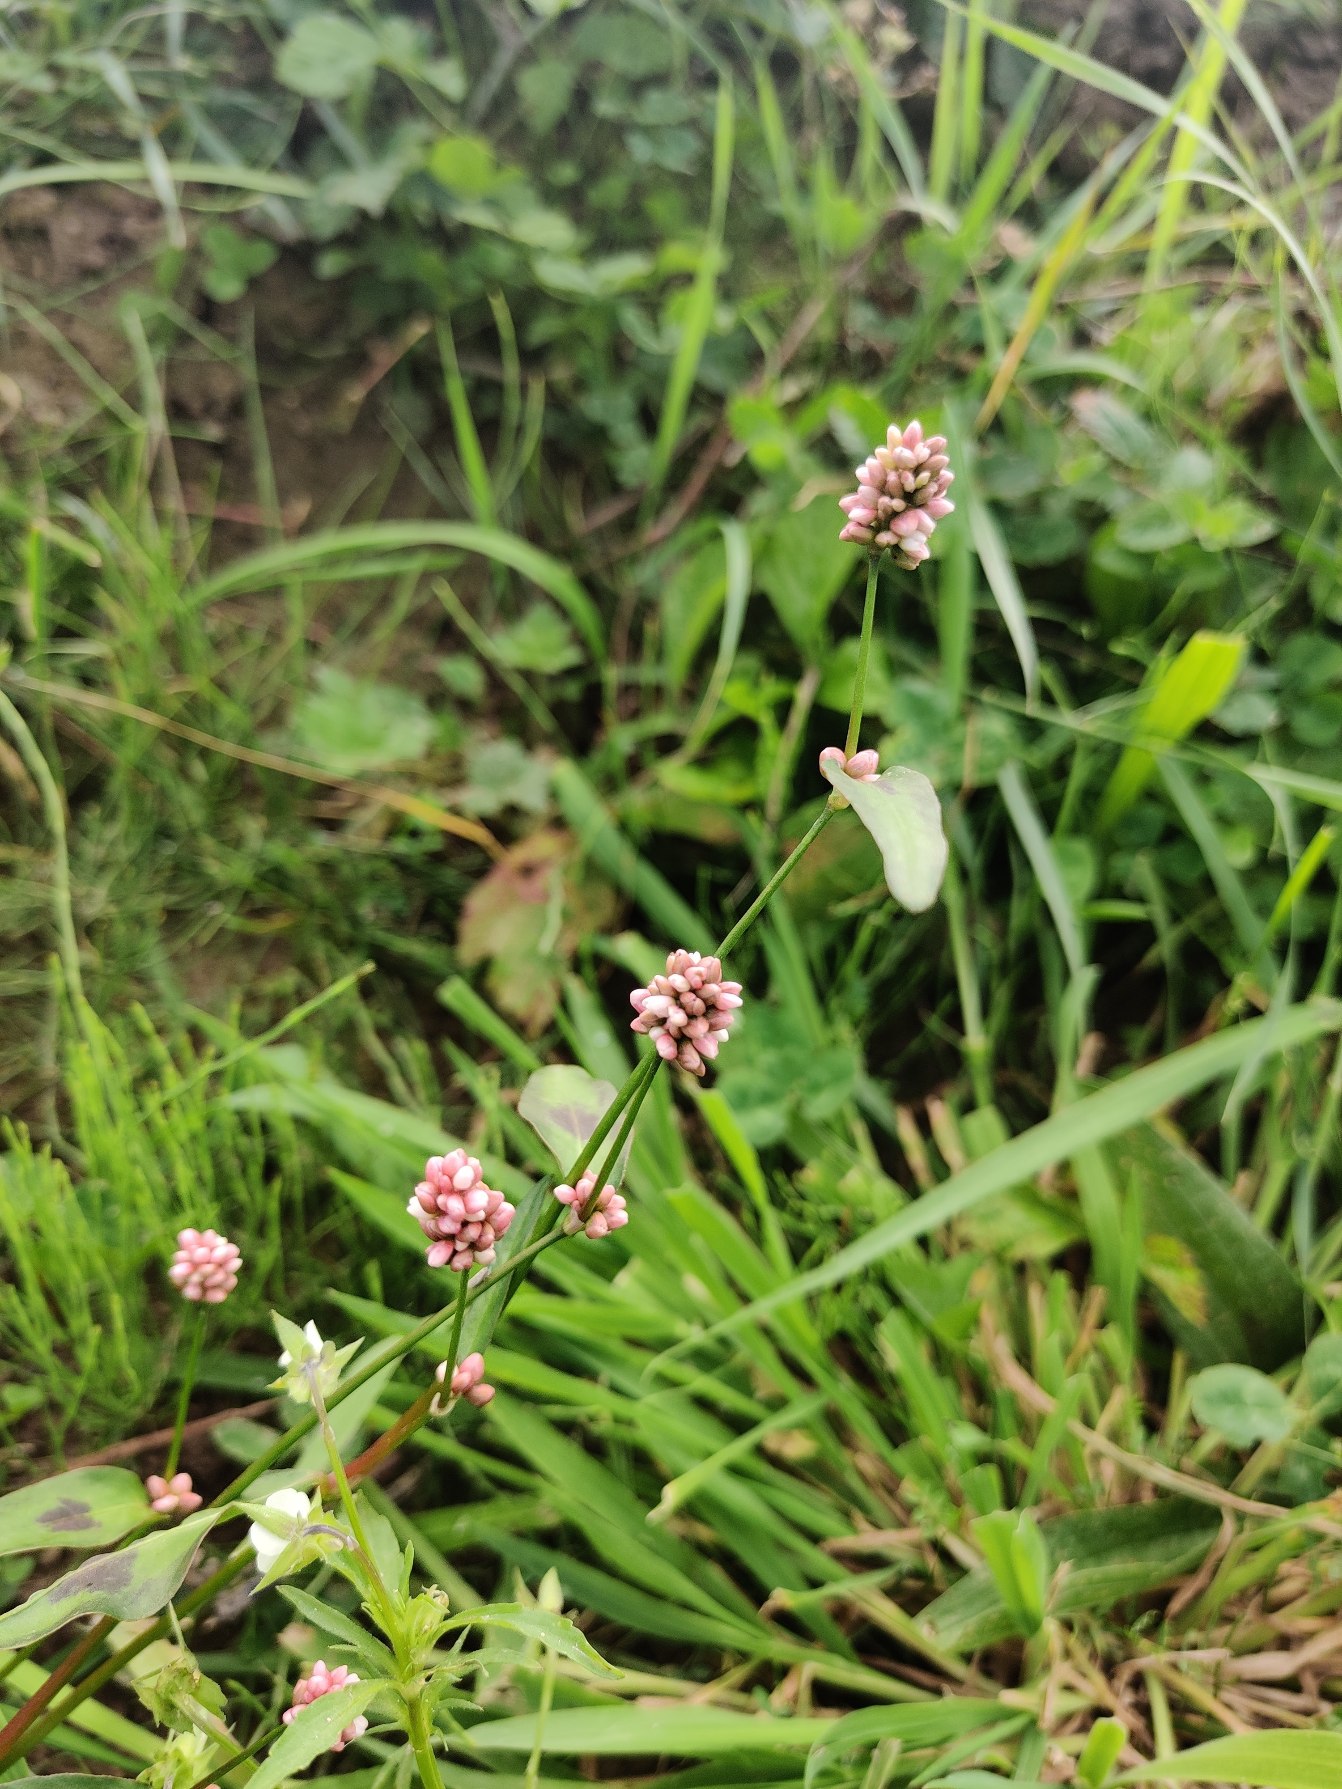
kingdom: Plantae
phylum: Tracheophyta
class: Magnoliopsida
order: Caryophyllales
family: Polygonaceae
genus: Persicaria
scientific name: Persicaria maculosa
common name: Fersken-pileurt
